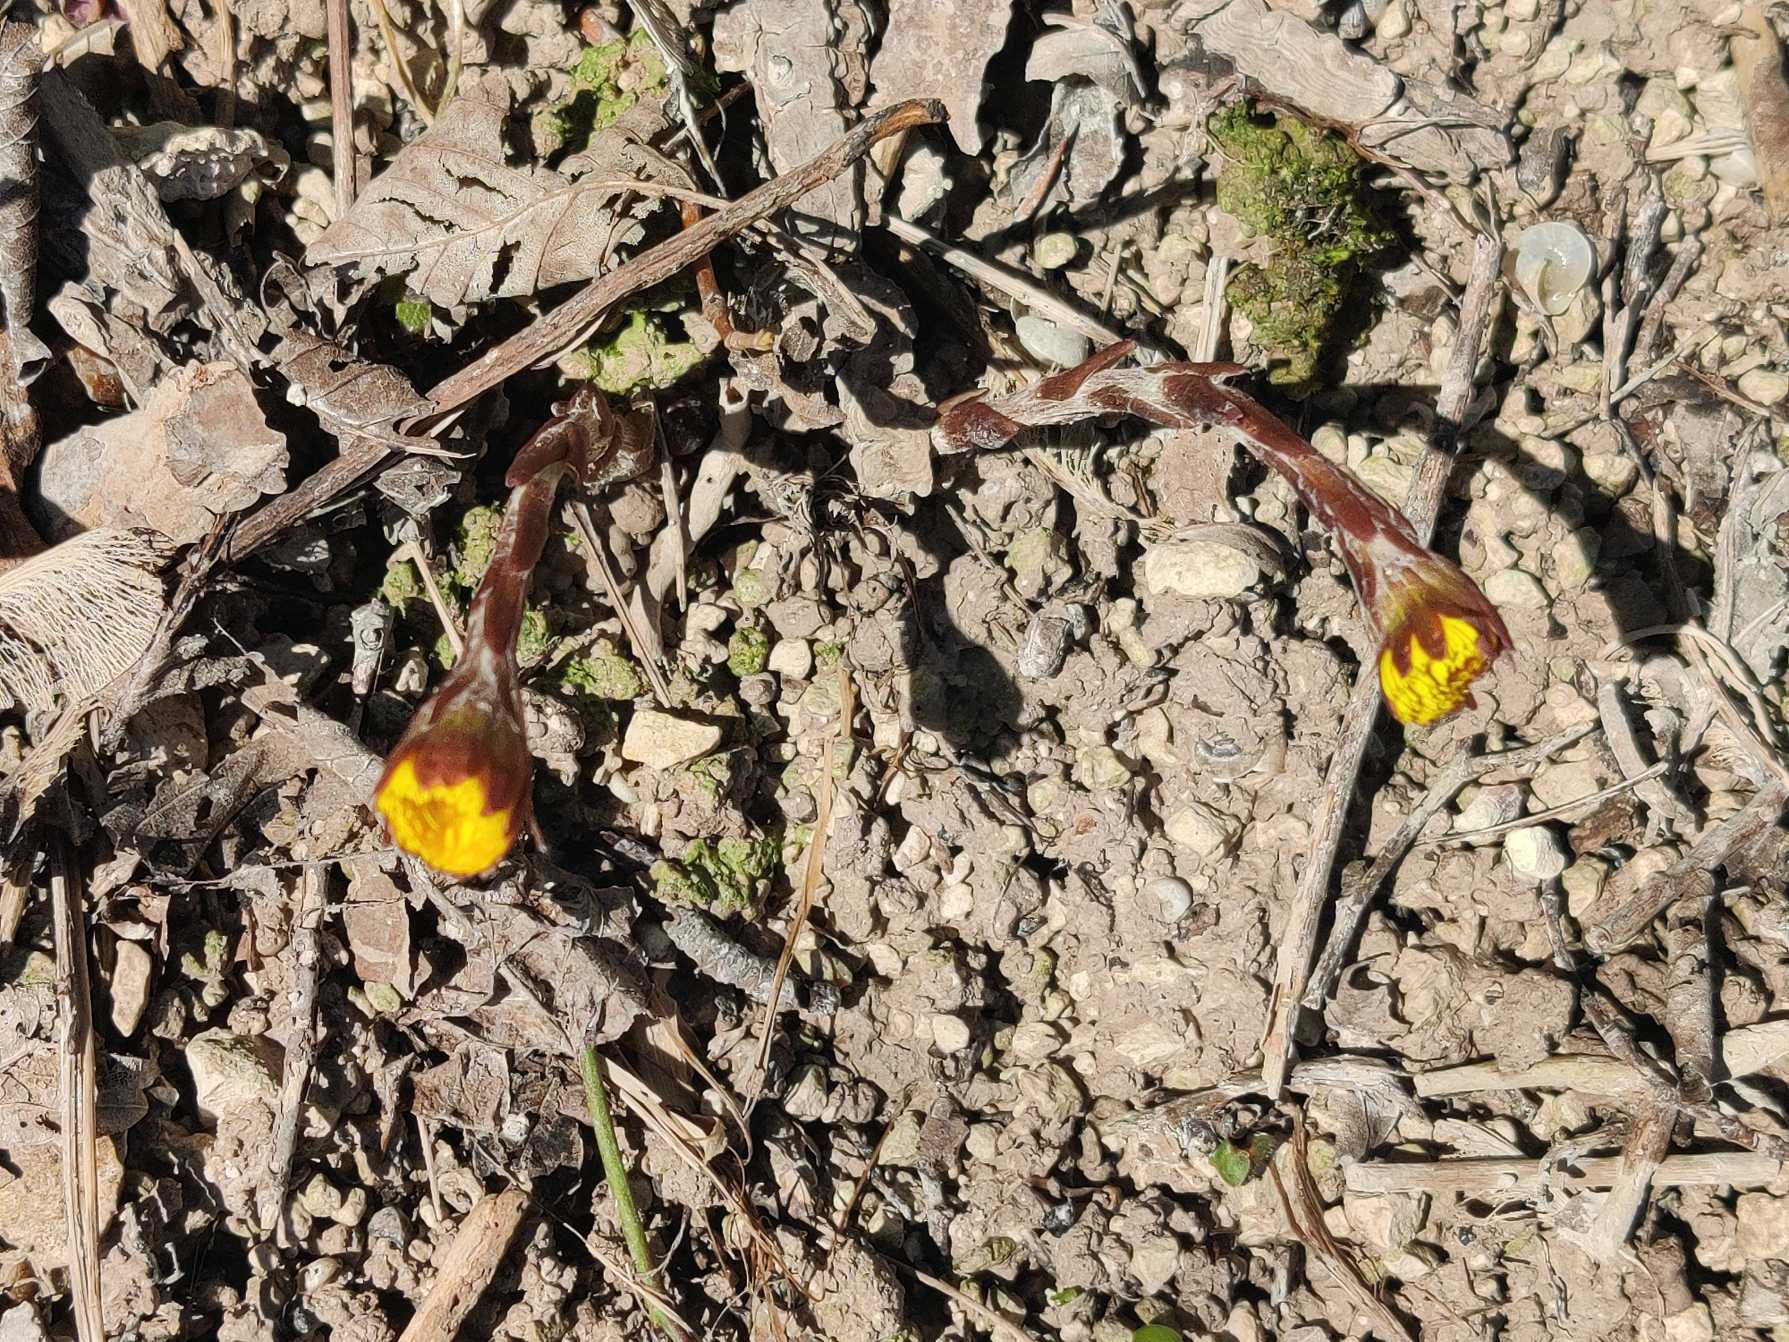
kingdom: Plantae
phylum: Tracheophyta
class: Magnoliopsida
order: Asterales
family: Asteraceae
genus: Tussilago
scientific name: Tussilago farfara
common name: Følfod
